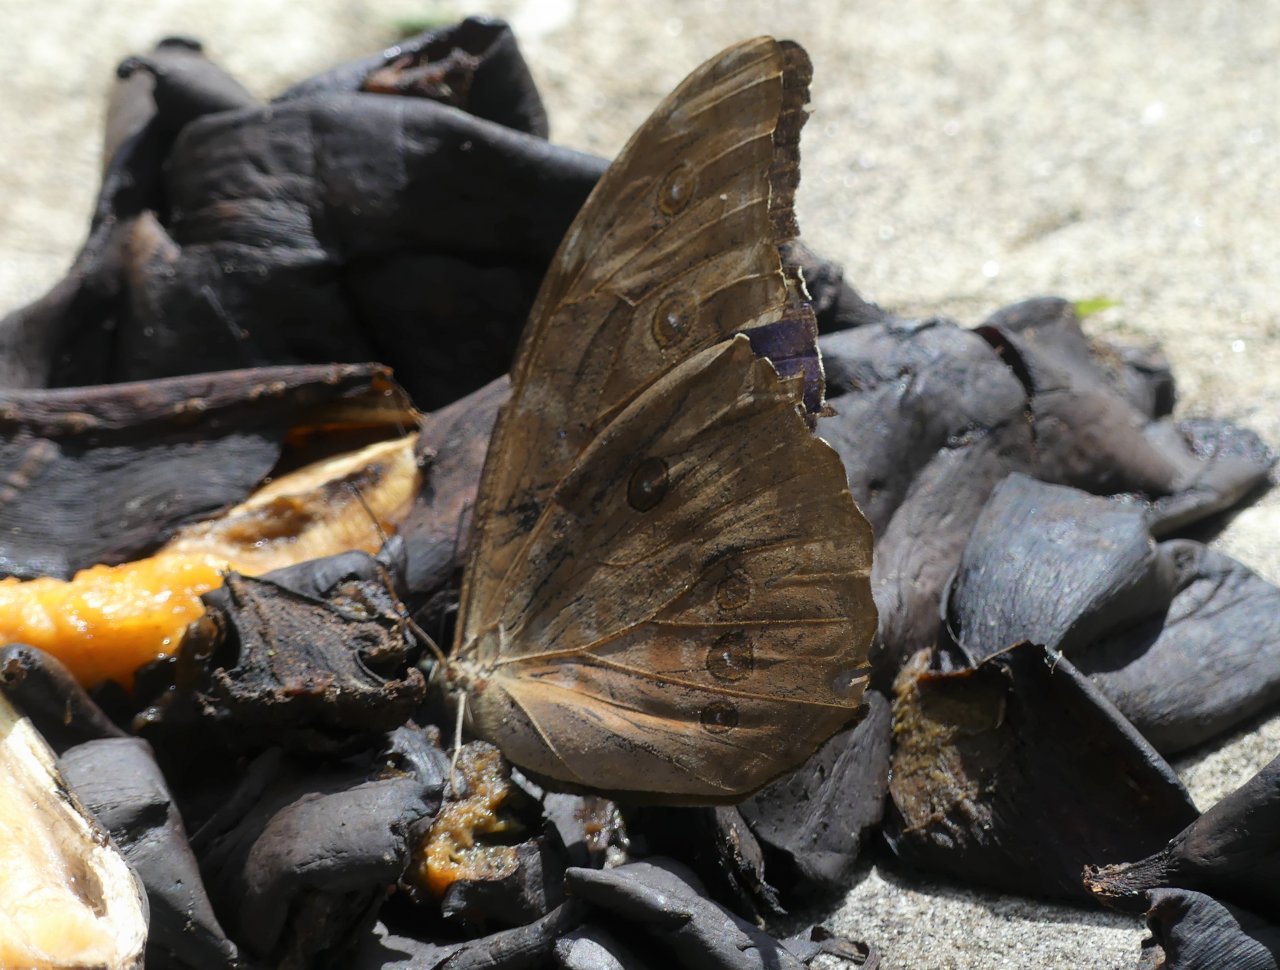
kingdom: Animalia
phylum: Arthropoda
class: Insecta
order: Lepidoptera
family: Nymphalidae
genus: Morpho
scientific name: Morpho menelaus
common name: Menelaus Morpho
